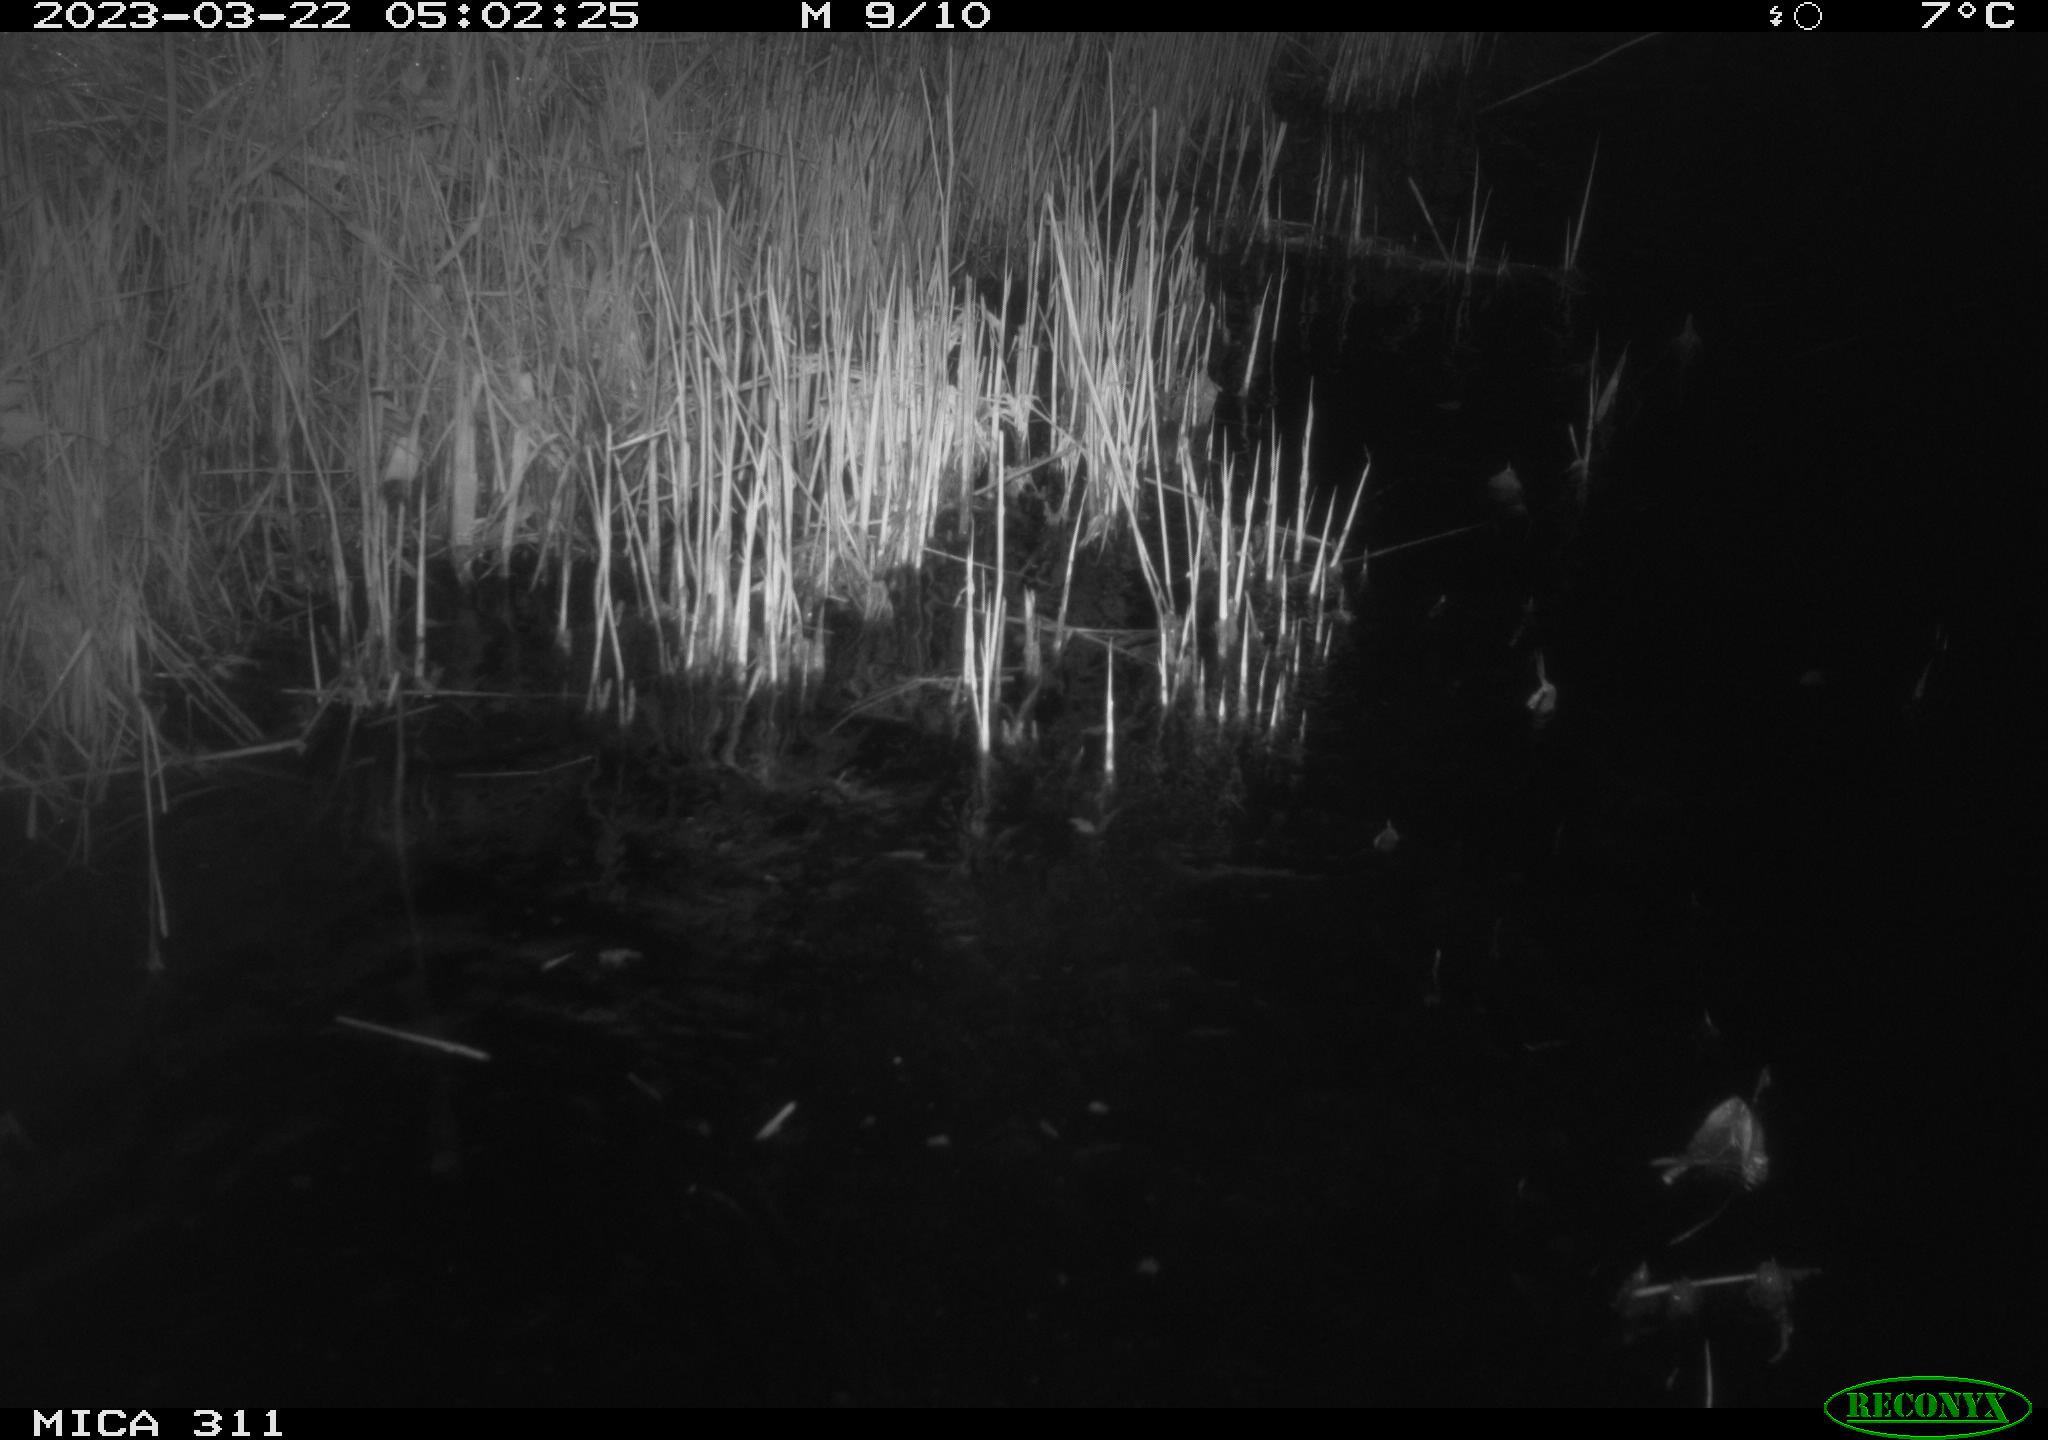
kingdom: Animalia
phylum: Chordata
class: Aves
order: Anseriformes
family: Anatidae
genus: Anas
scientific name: Anas
